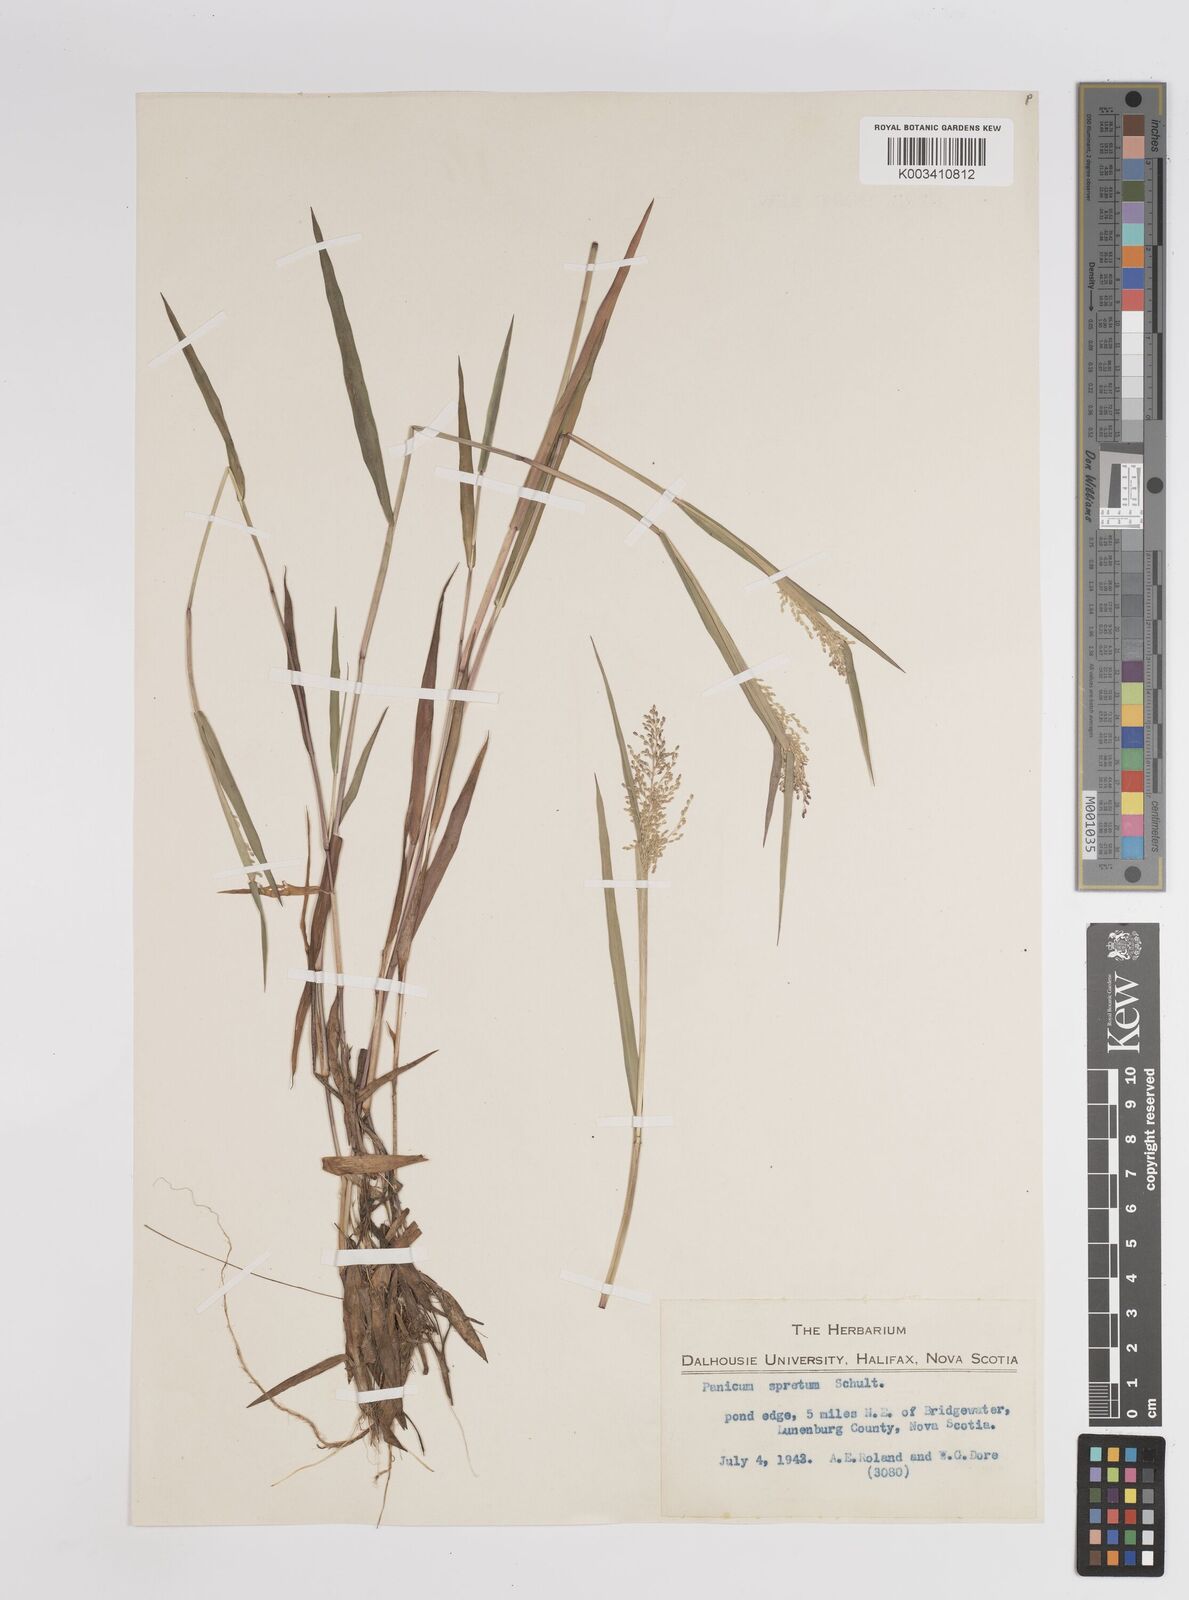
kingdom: Plantae
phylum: Tracheophyta
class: Liliopsida
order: Poales
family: Poaceae
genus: Dichanthelium
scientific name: Dichanthelium acuminatum
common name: Hairy panic grass
